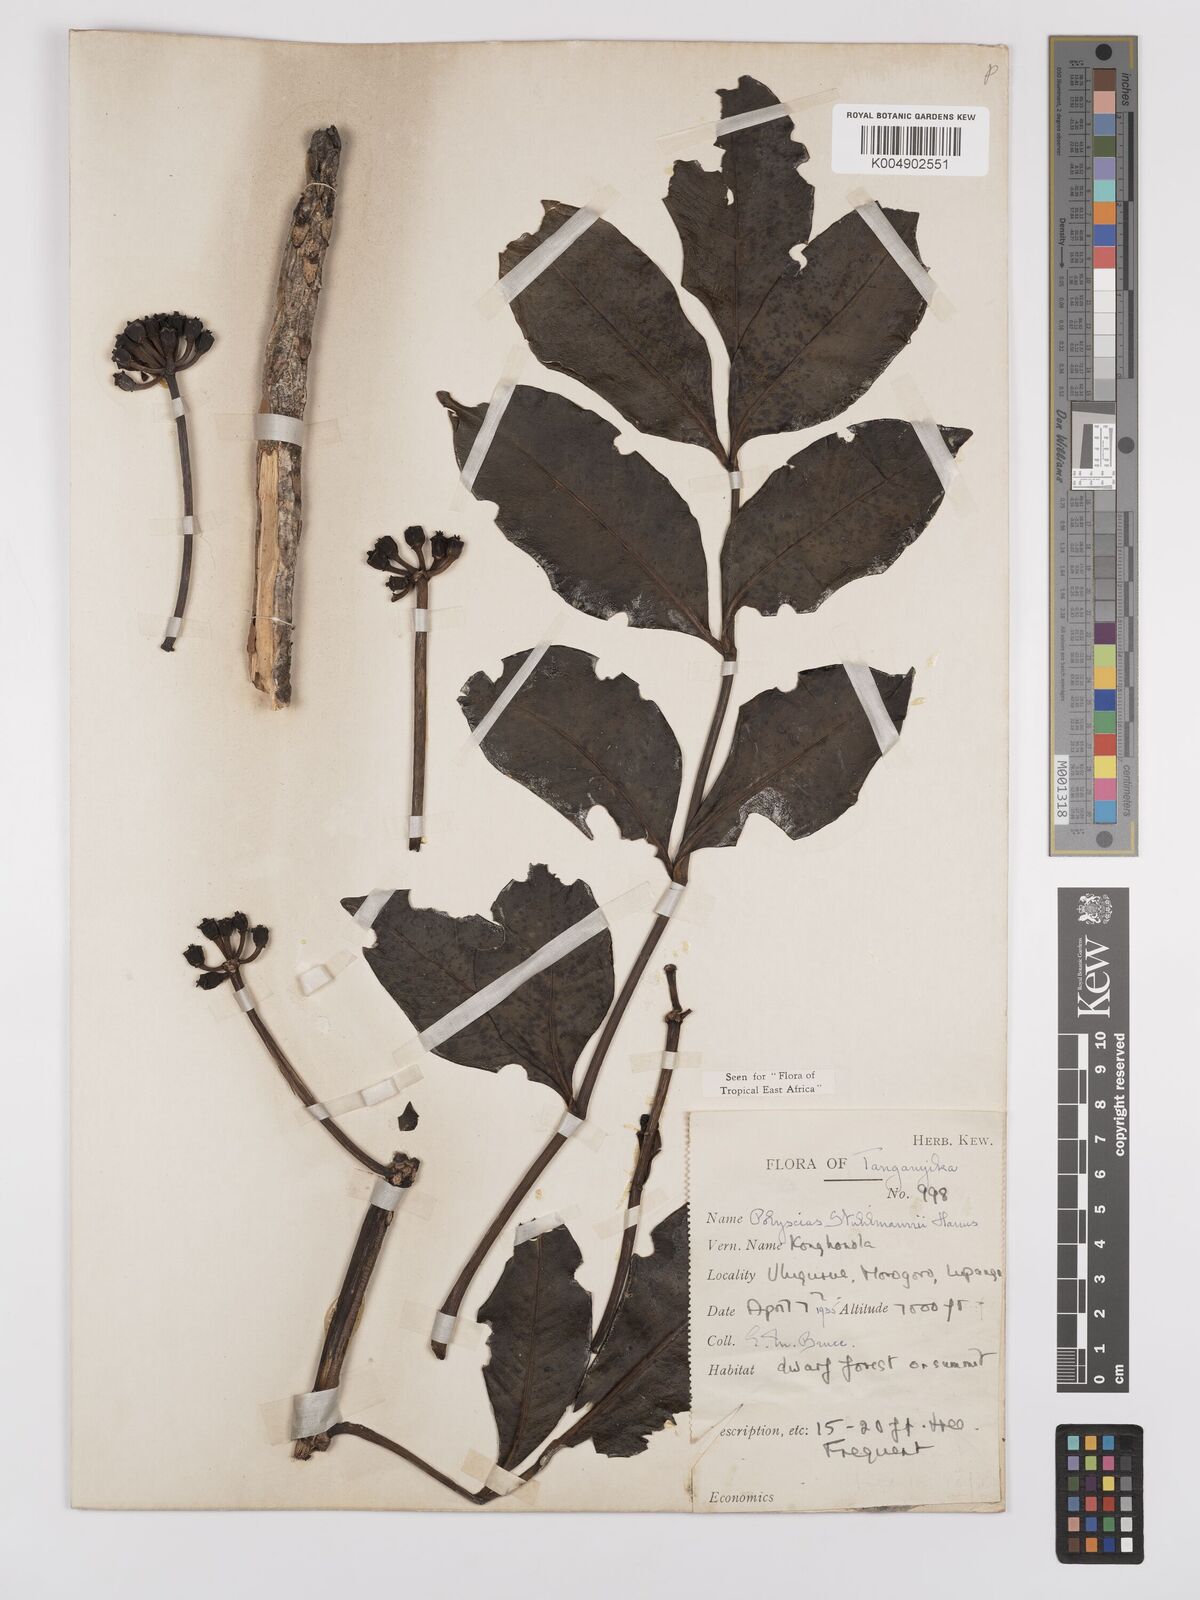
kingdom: Plantae
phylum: Tracheophyta
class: Magnoliopsida
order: Apiales
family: Araliaceae
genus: Polyscias
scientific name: Polyscias stuhlmannii
